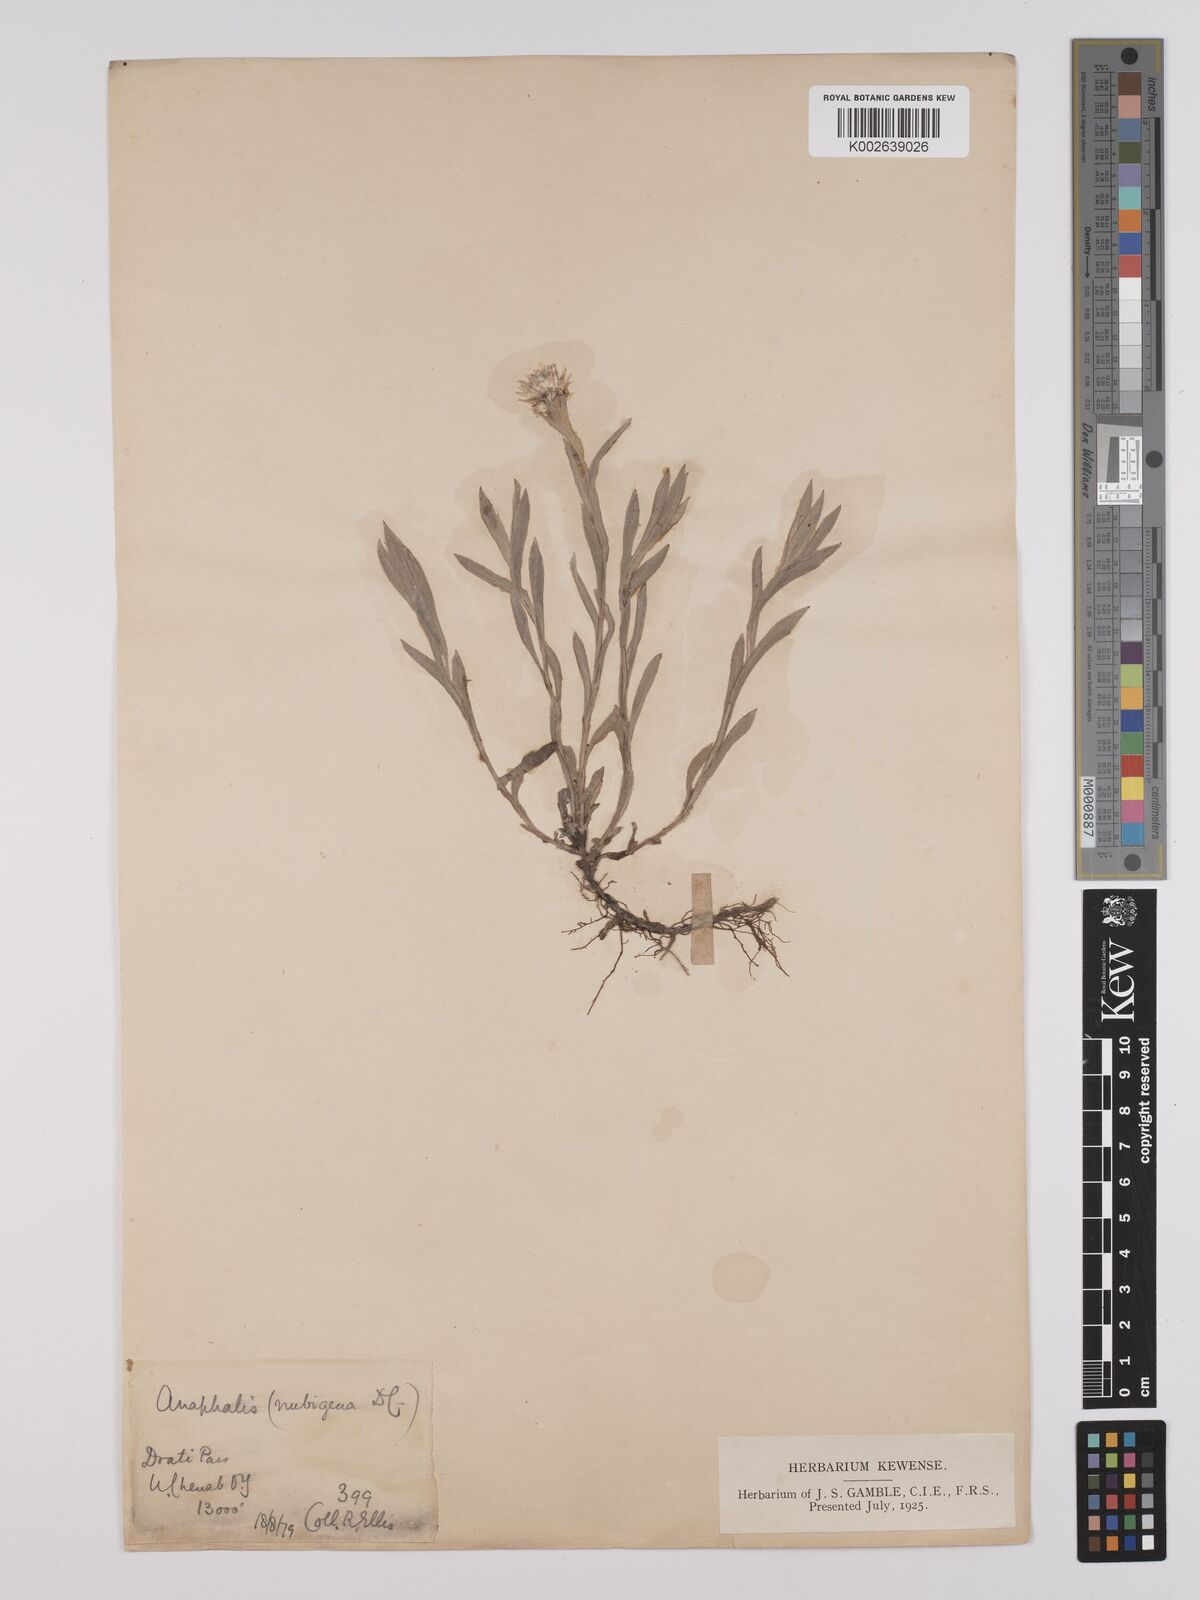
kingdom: Plantae
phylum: Tracheophyta
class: Magnoliopsida
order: Asterales
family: Asteraceae
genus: Anaphalis
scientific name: Anaphalis nepalensis
